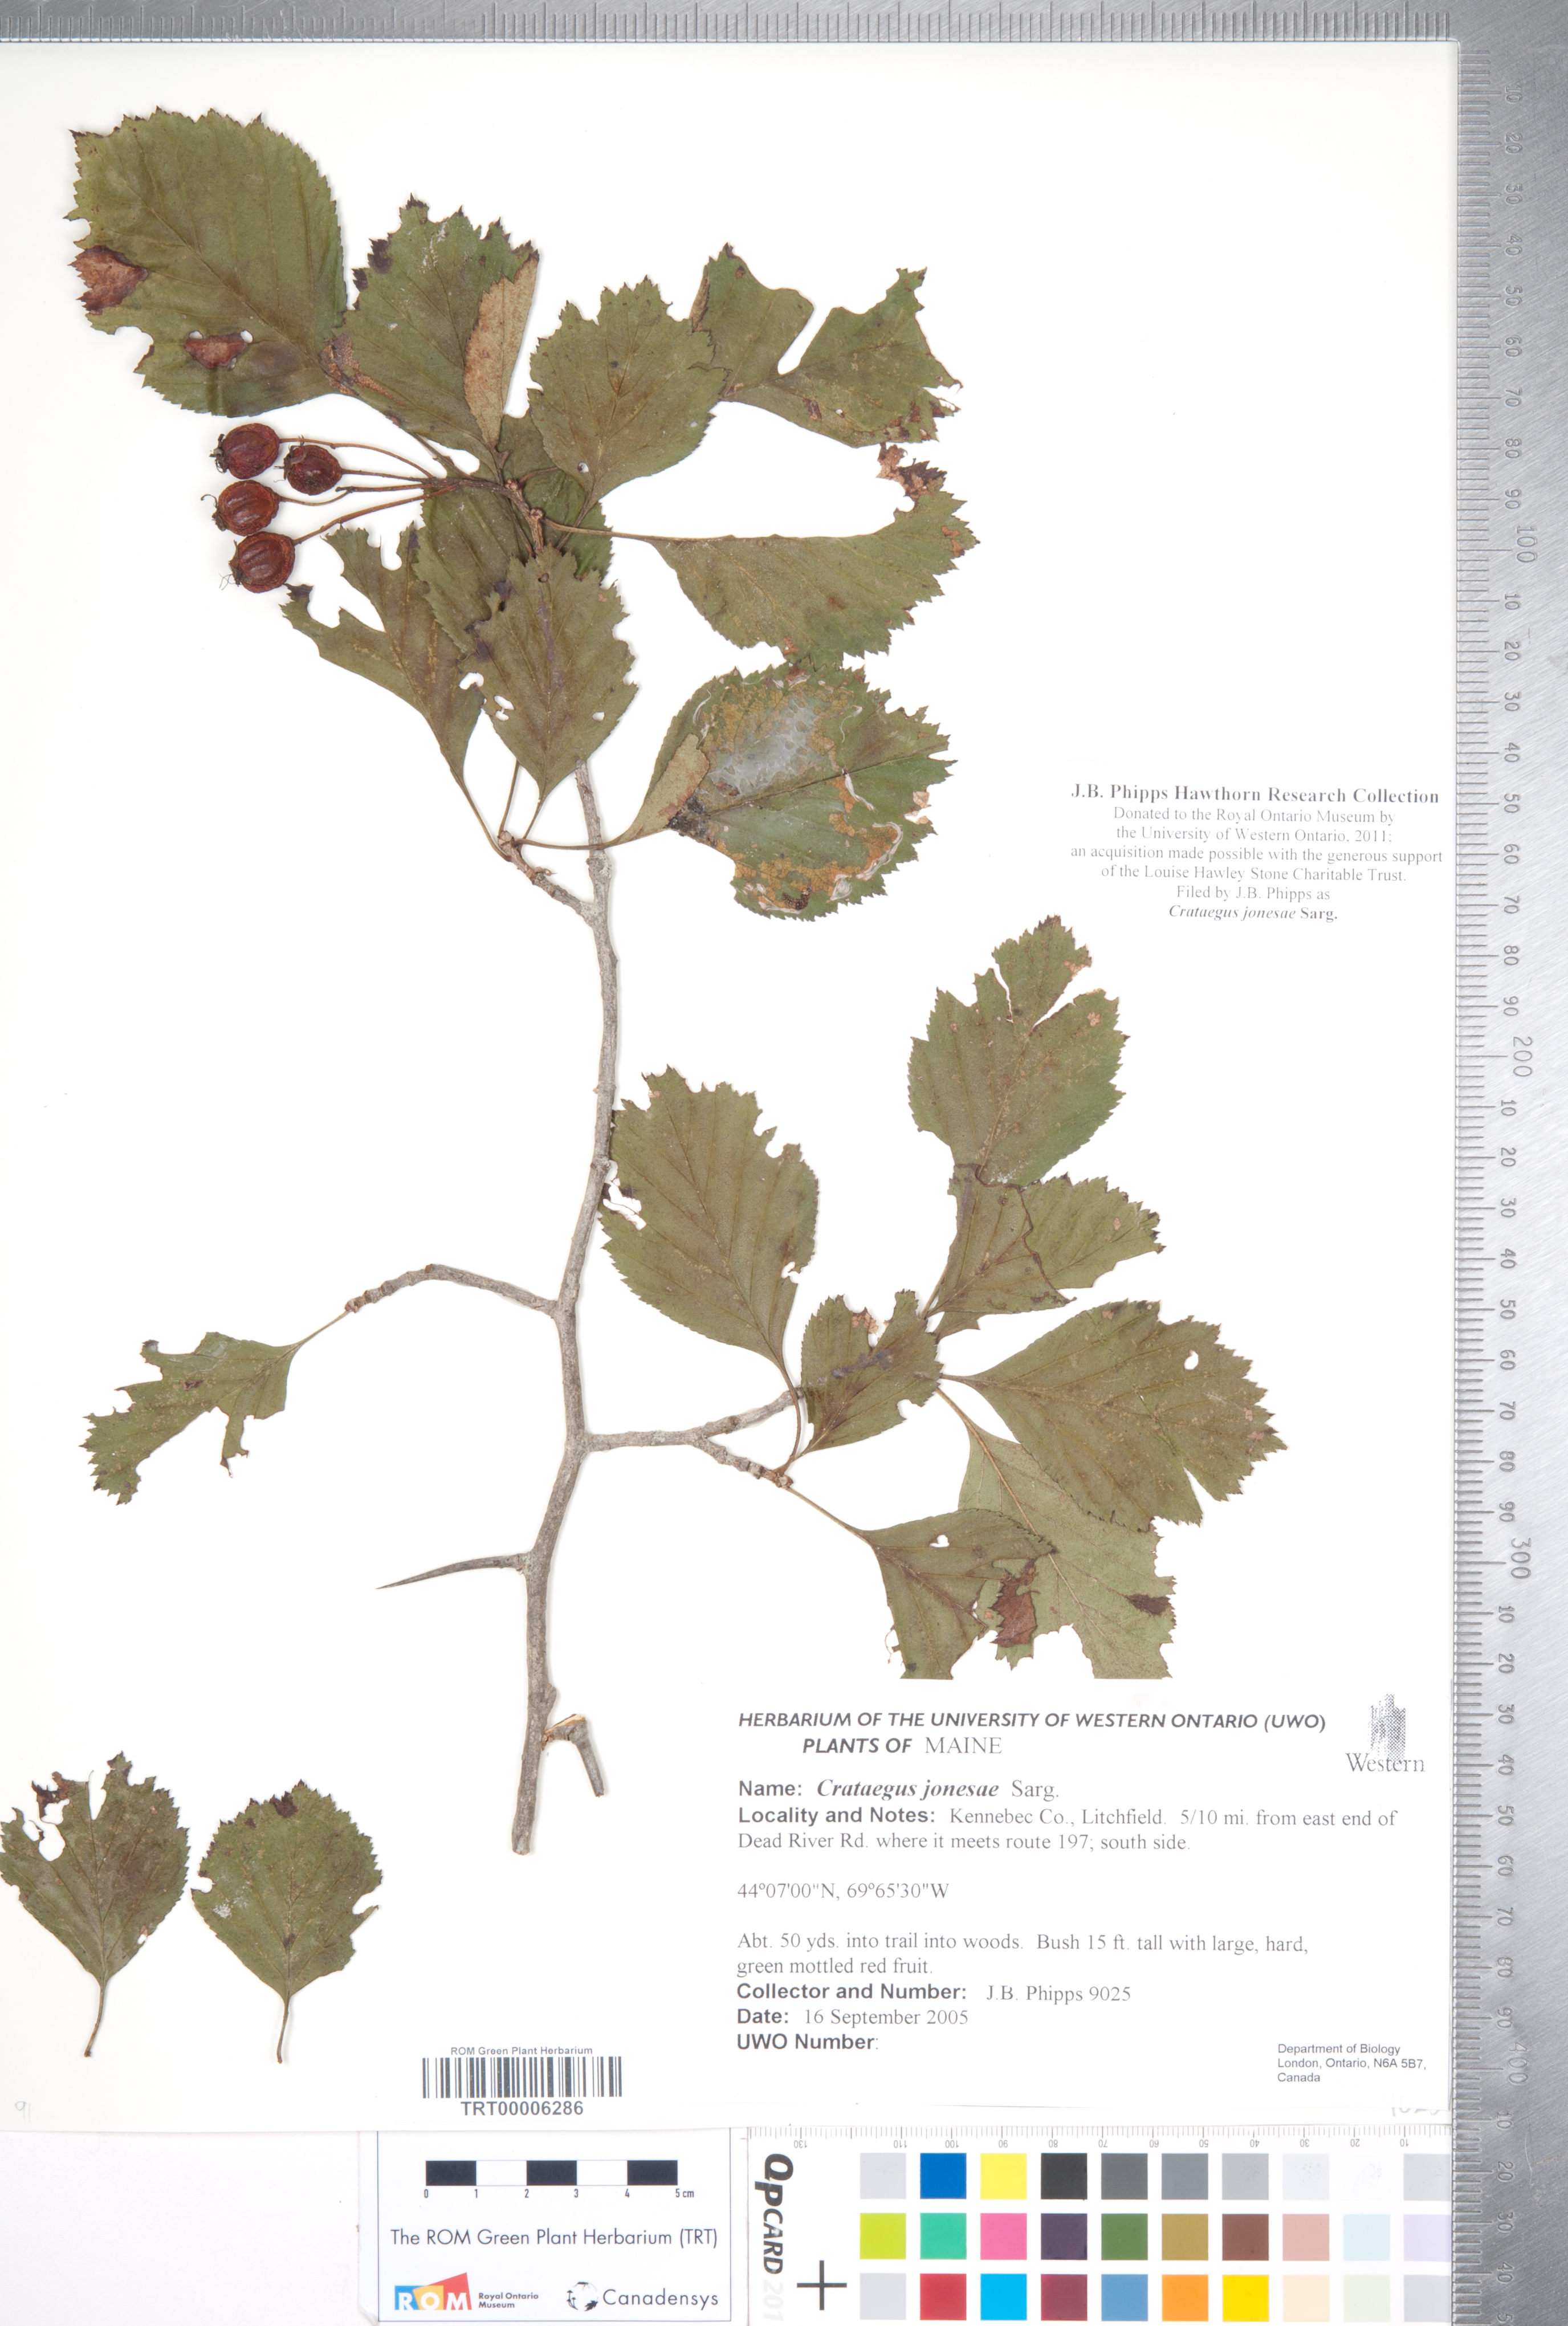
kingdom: Plantae
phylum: Tracheophyta
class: Magnoliopsida
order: Rosales
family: Rosaceae
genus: Crataegus
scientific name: Crataegus jonesae
